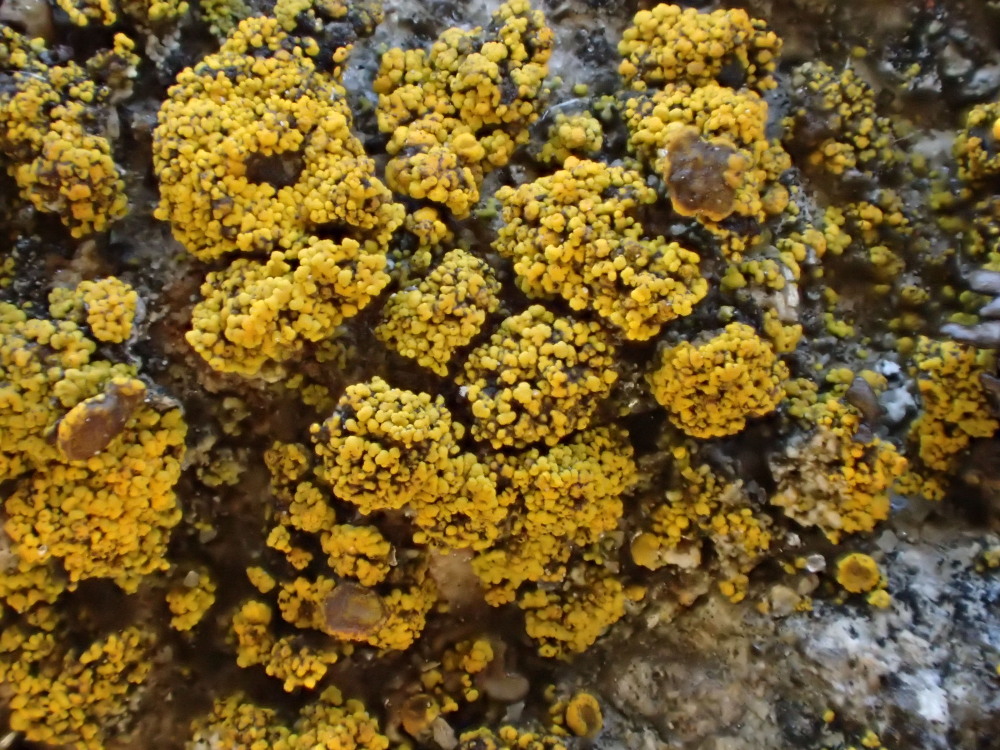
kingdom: Fungi
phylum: Ascomycota
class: Candelariomycetes
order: Candelariales
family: Candelariaceae
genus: Candelariella
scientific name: Candelariella vitellina
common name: almindelig æggeblommelav
